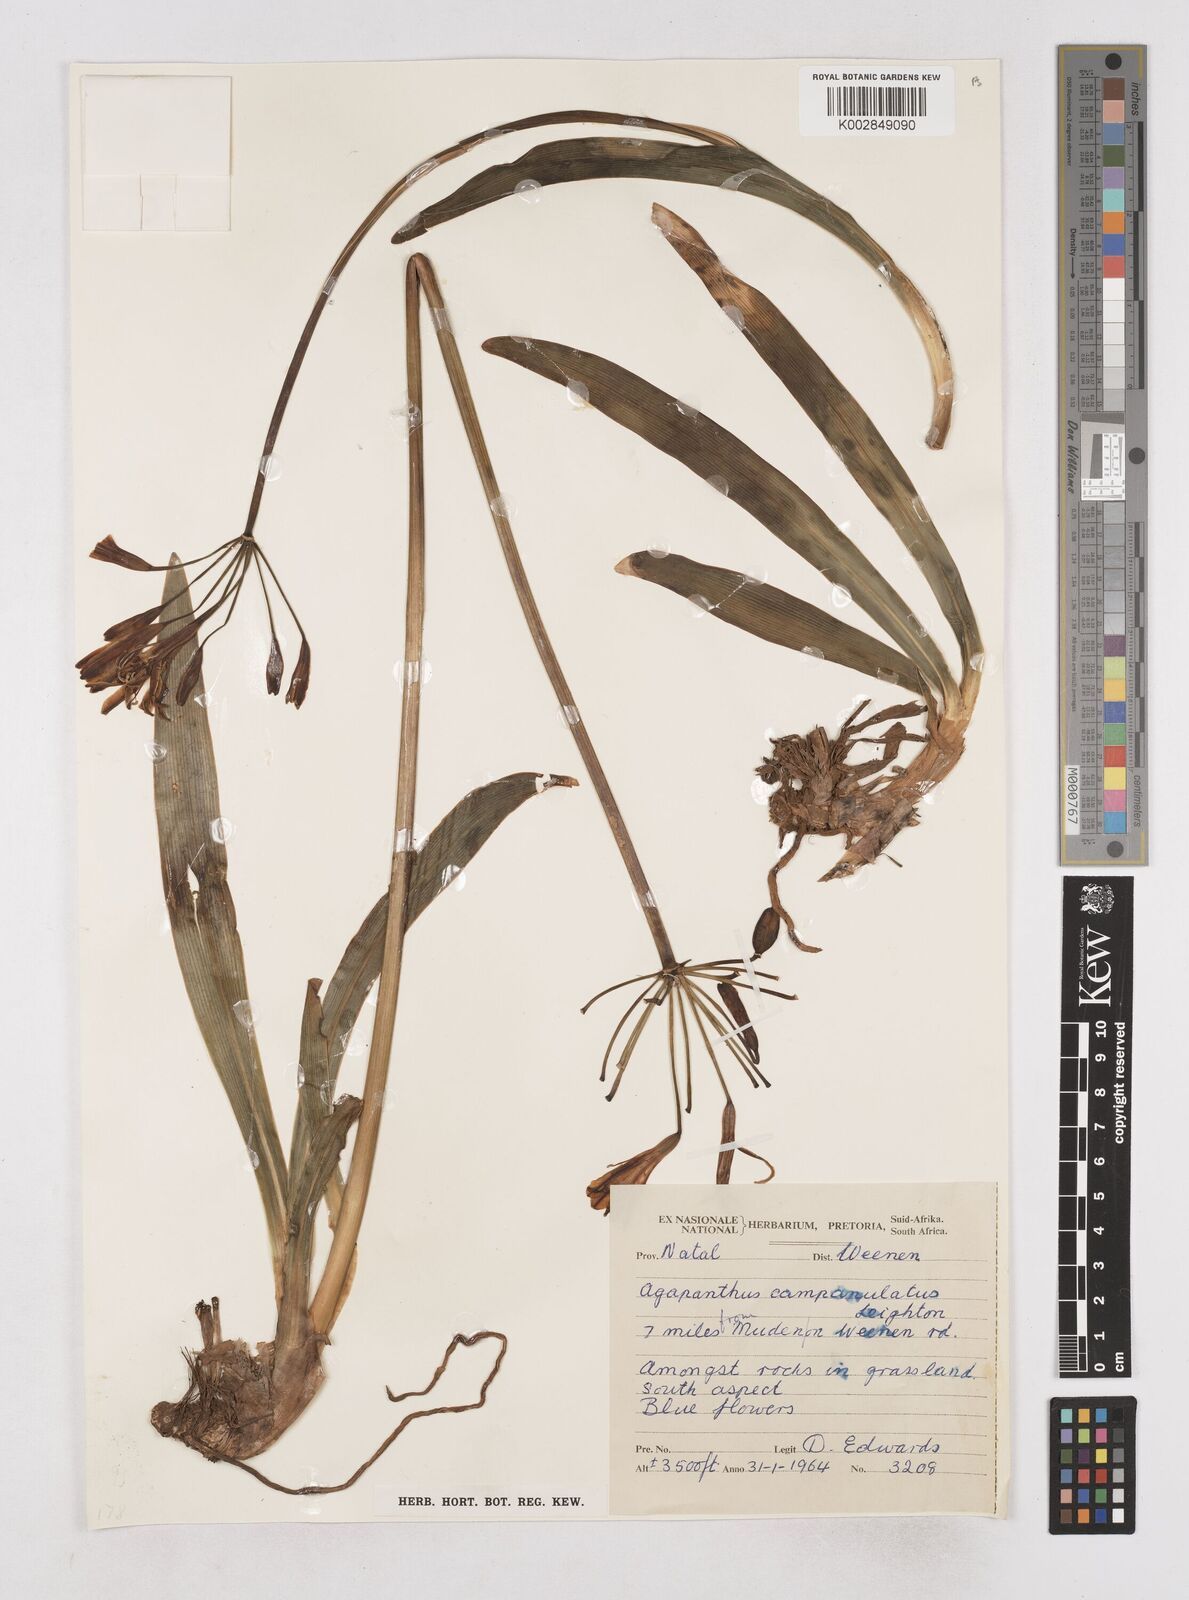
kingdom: Plantae
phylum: Tracheophyta
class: Liliopsida
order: Asparagales
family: Amaryllidaceae
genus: Agapanthus
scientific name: Agapanthus campanulatus
